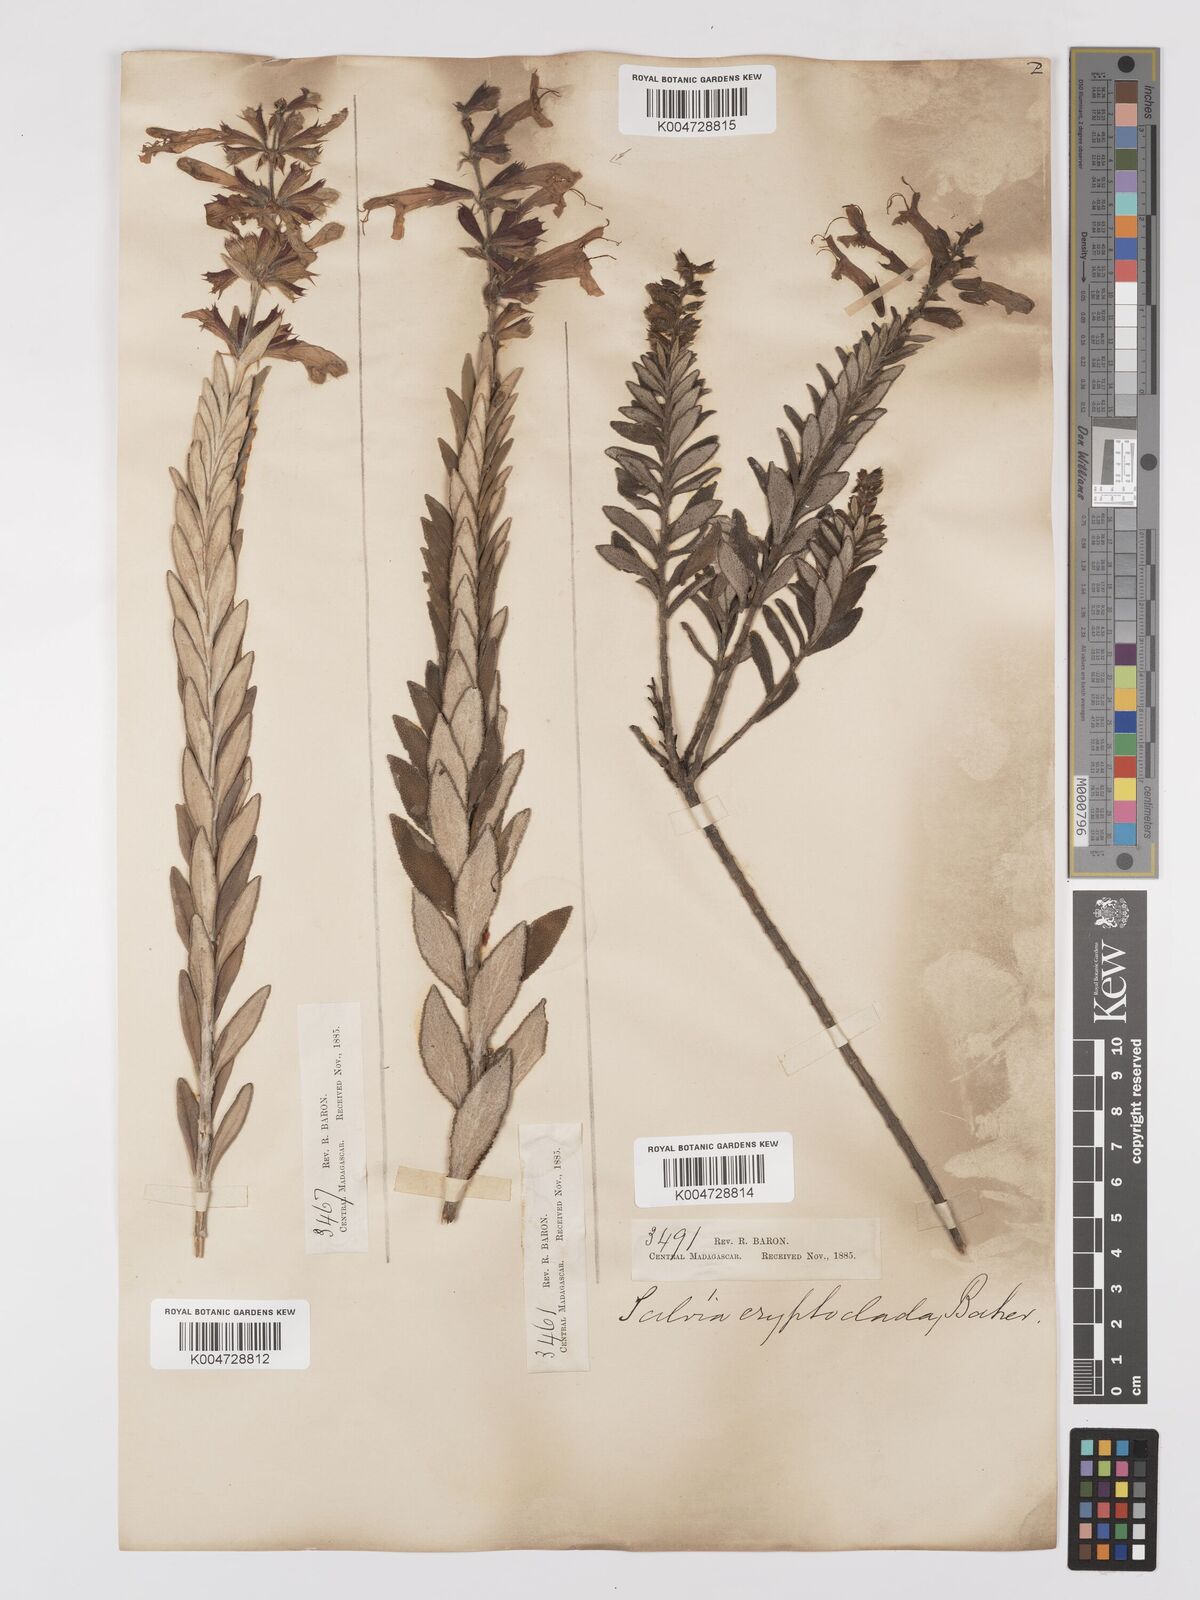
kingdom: Plantae
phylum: Tracheophyta
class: Magnoliopsida
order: Lamiales
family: Lamiaceae
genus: Salvia
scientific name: Salvia cryptoclada
